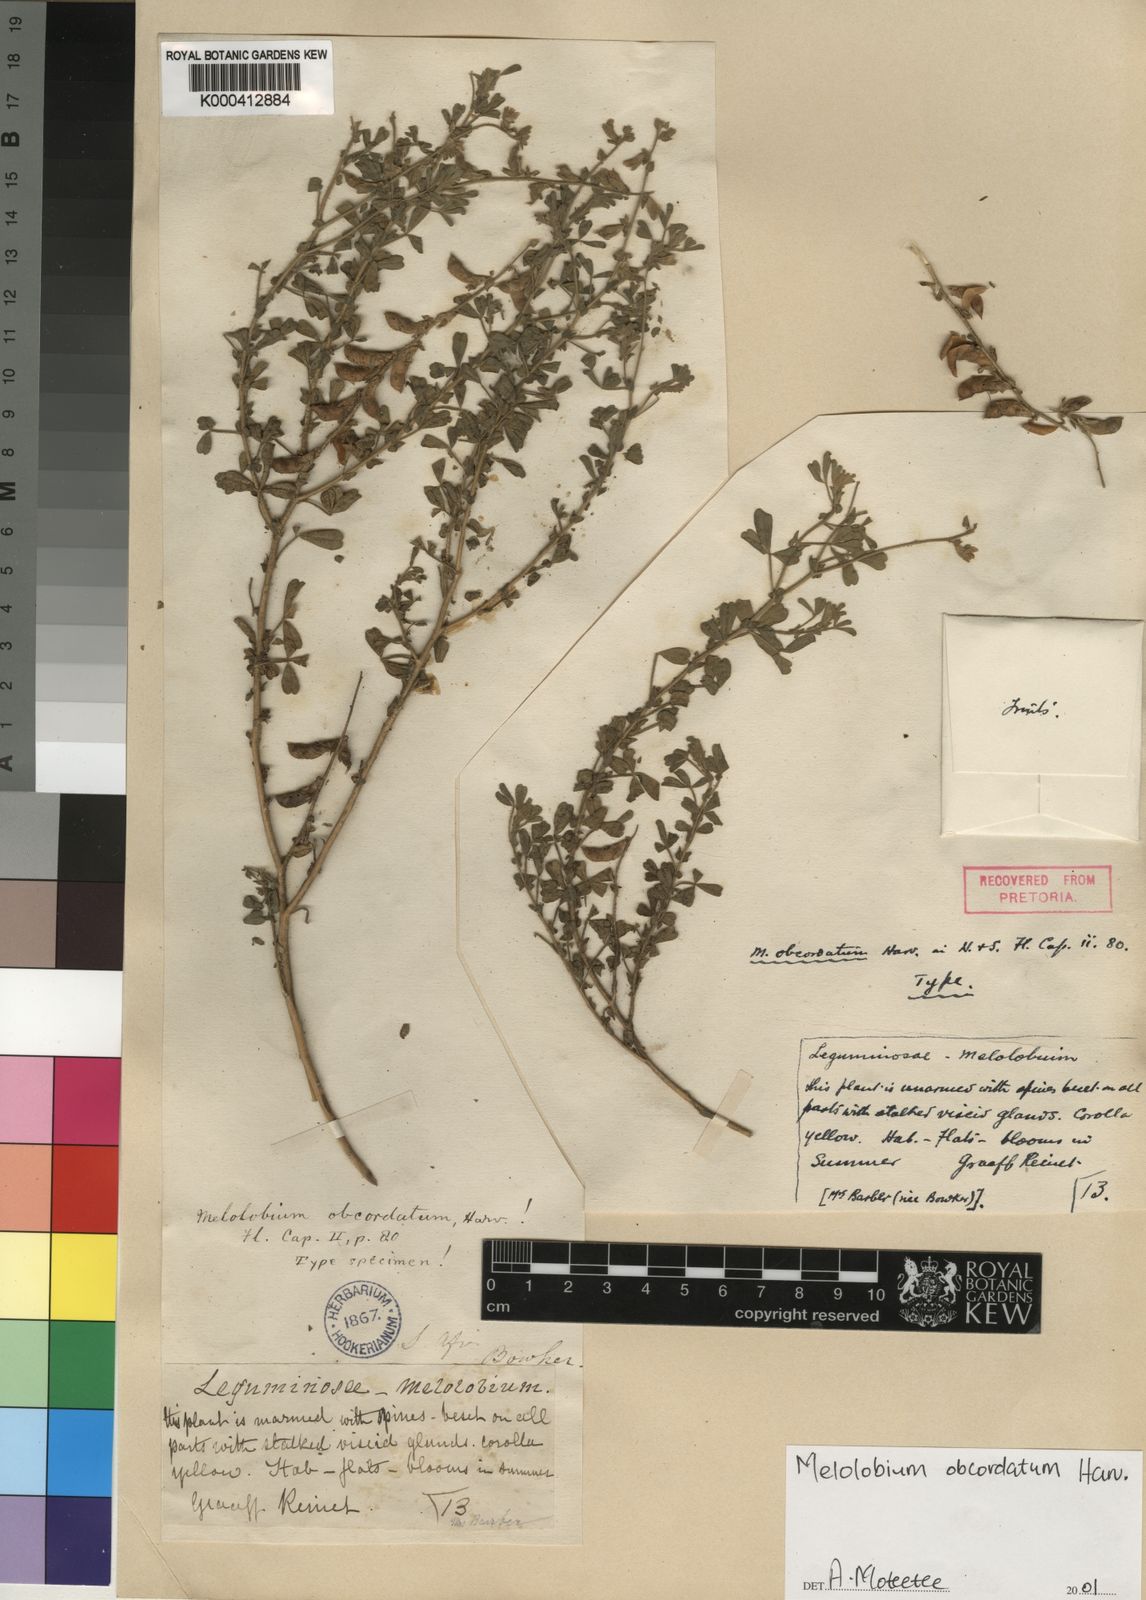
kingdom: Plantae
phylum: Tracheophyta
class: Magnoliopsida
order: Fabales
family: Fabaceae
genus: Melolobium
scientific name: Melolobium obcordatum
